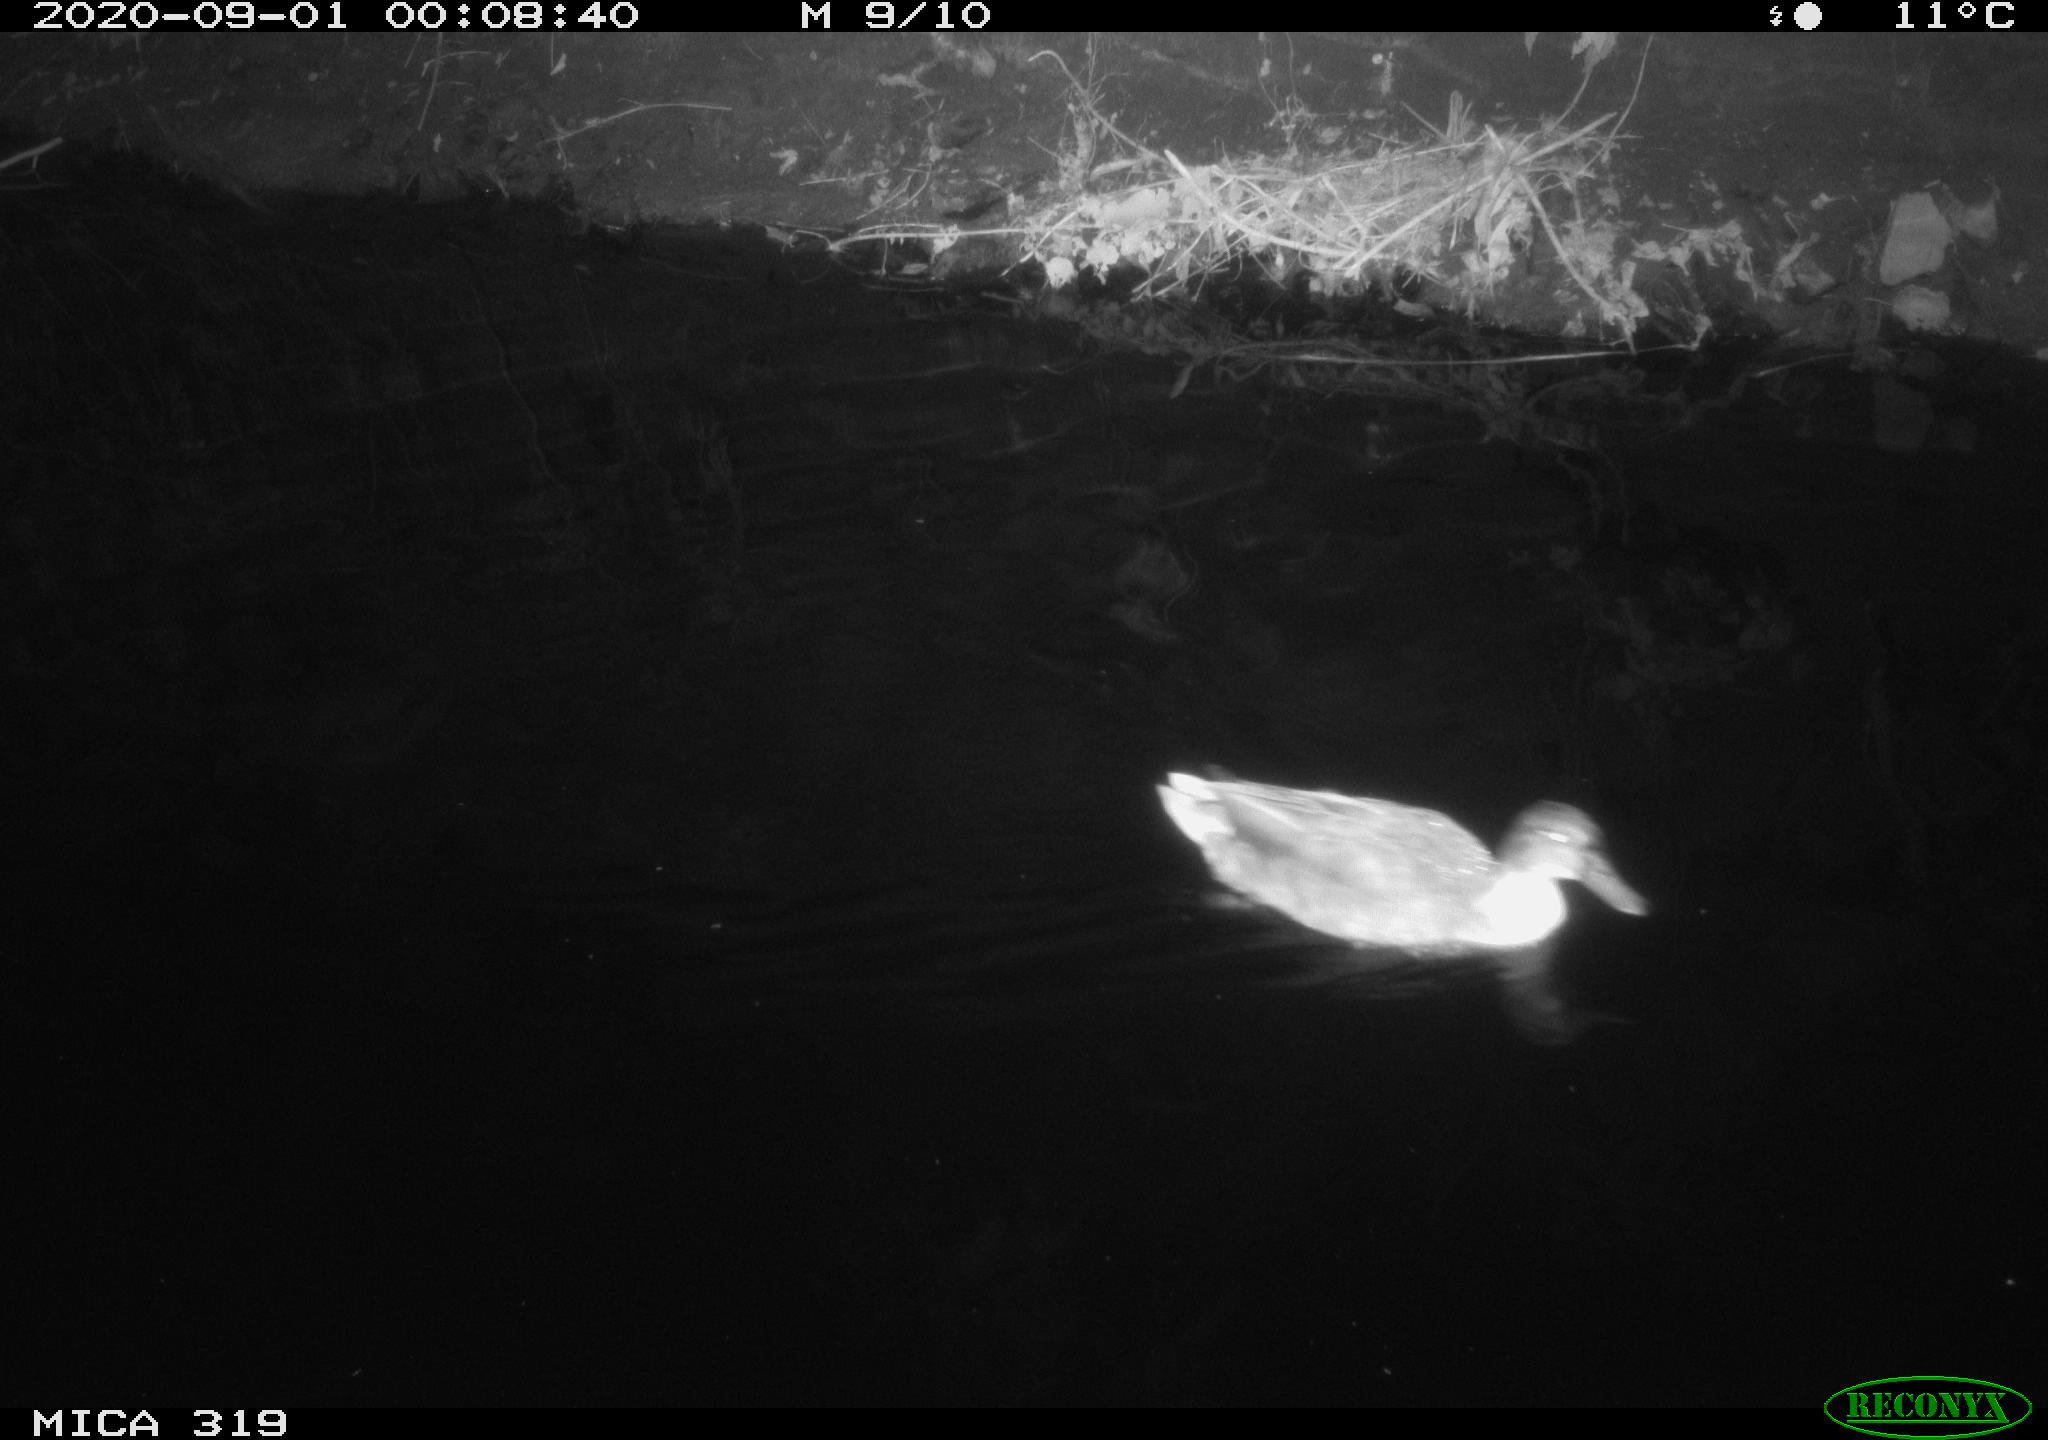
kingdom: Animalia
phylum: Chordata
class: Aves
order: Anseriformes
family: Anatidae
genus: Anas
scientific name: Anas platyrhynchos
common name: Mallard
